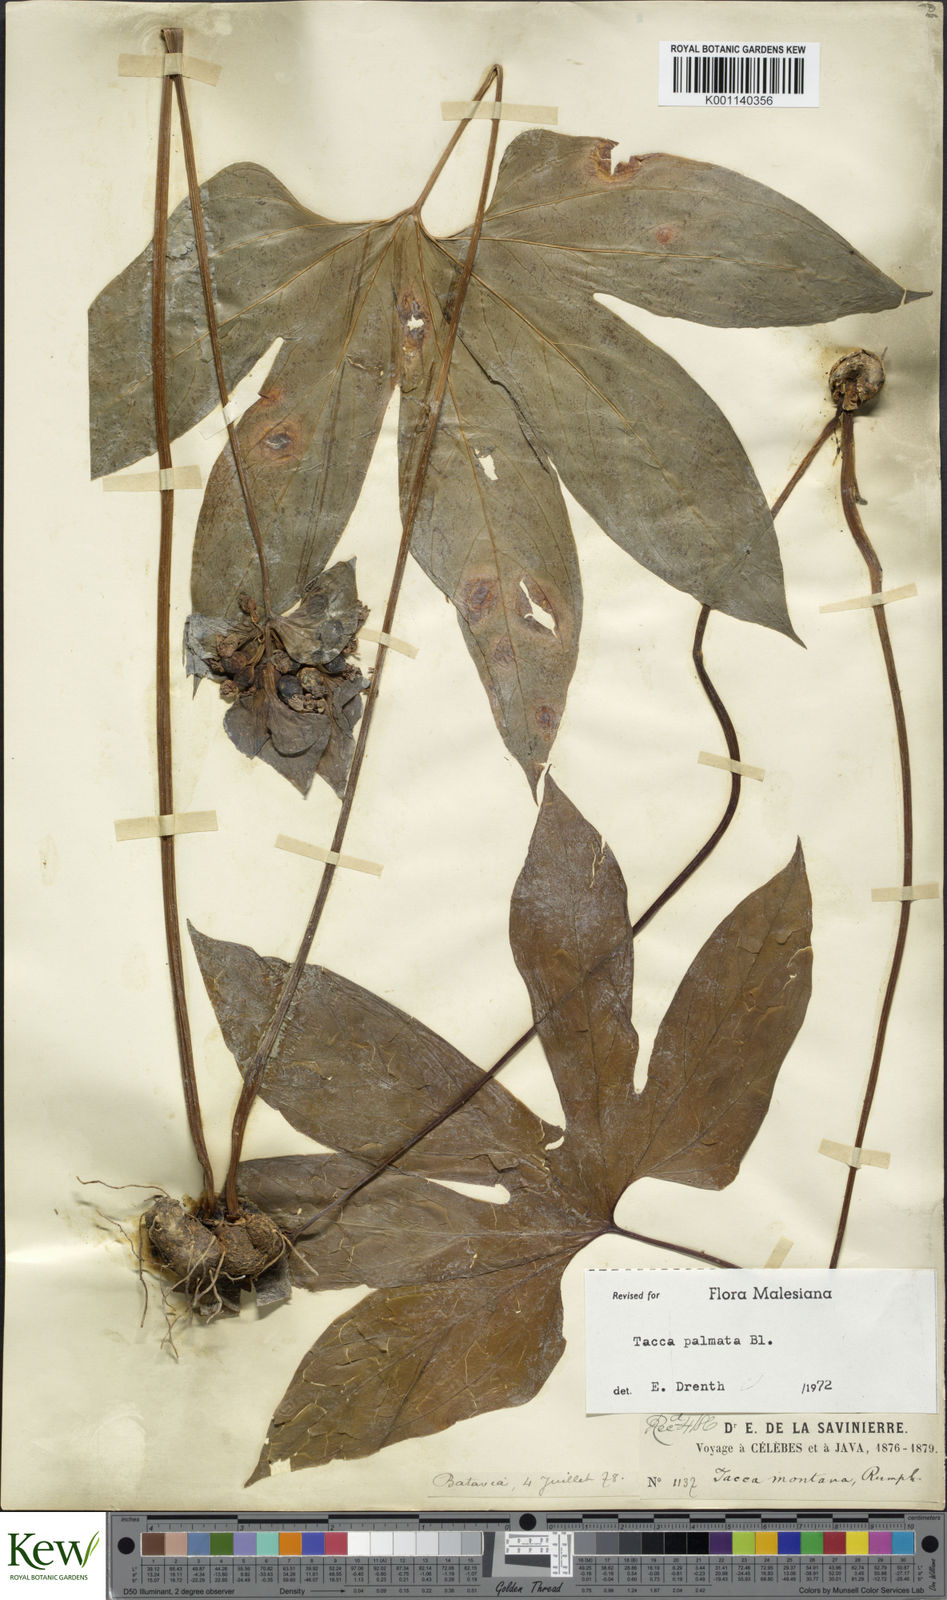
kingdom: Plantae
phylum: Tracheophyta
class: Liliopsida
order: Dioscoreales
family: Dioscoreaceae
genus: Tacca
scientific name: Tacca palmata
